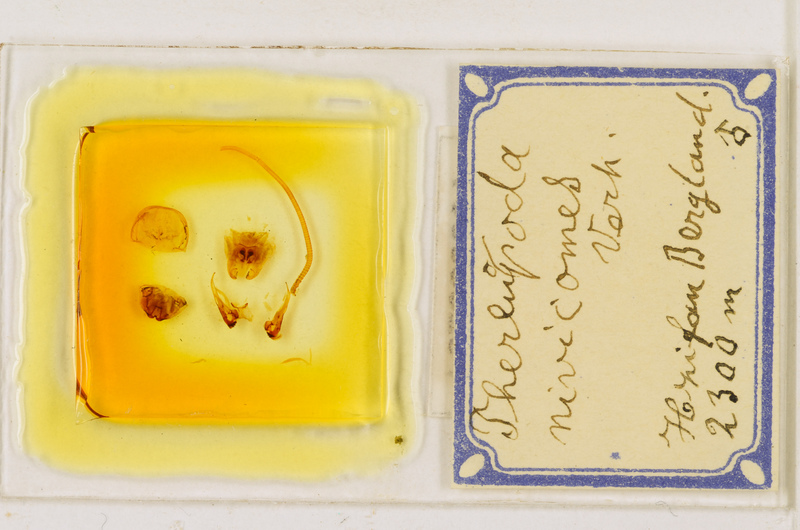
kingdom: Animalia
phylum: Arthropoda
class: Chilopoda
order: Scutigeromorpha
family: Scutigeridae
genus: Thereuopoda
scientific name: Thereuopoda longicornis
